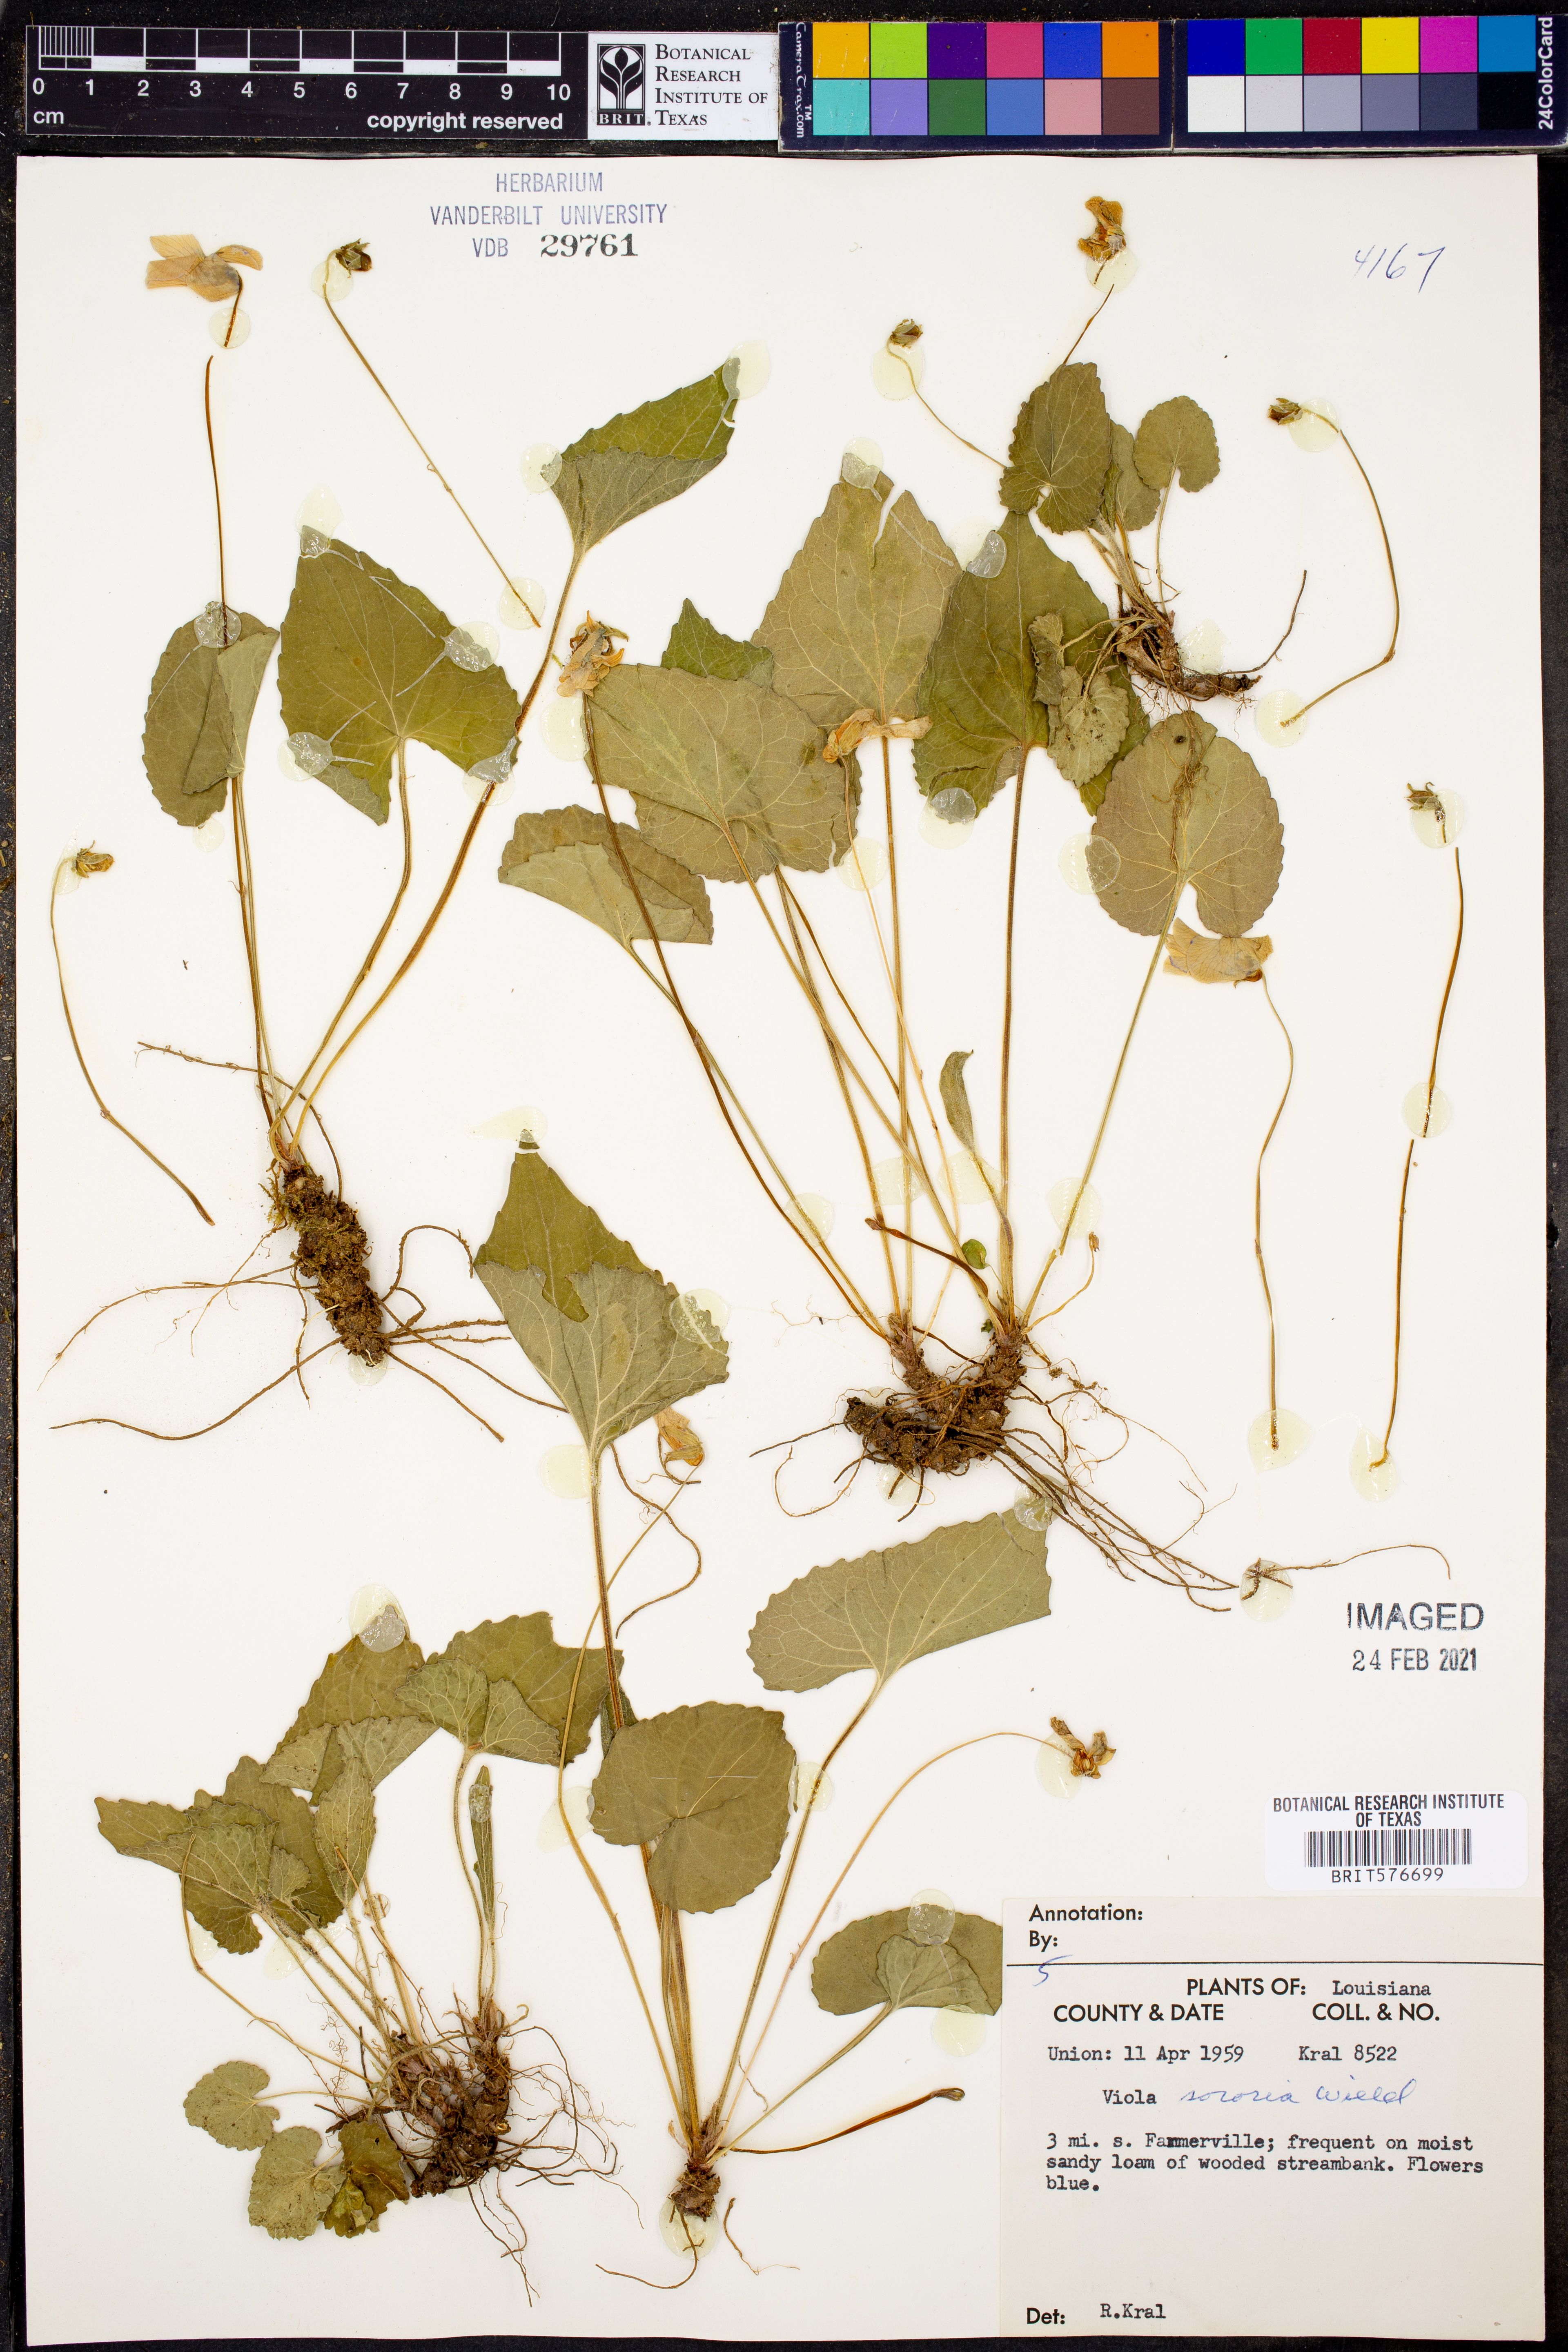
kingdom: Plantae
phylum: Tracheophyta
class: Magnoliopsida
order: Malpighiales
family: Violaceae
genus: Viola
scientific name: Viola sororia
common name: Dooryard violet
